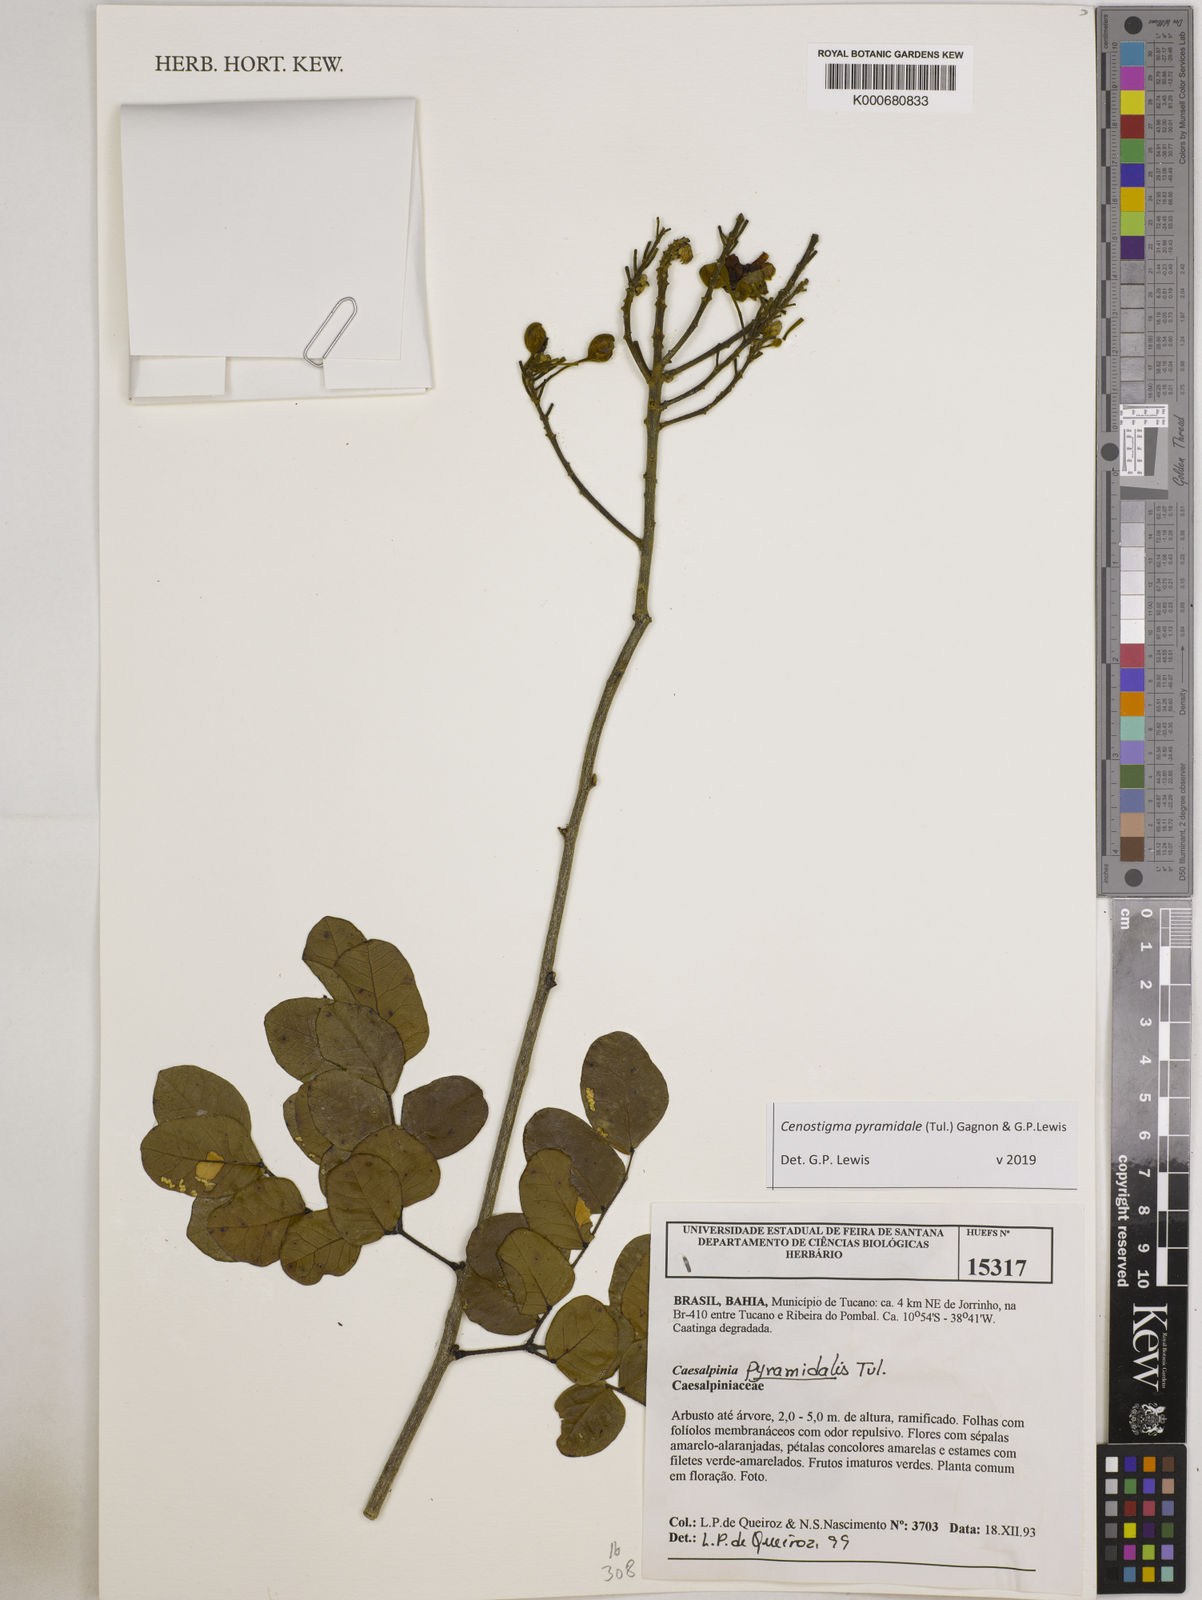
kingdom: Plantae
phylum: Tracheophyta
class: Magnoliopsida
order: Fabales
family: Fabaceae
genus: Caesalpinia
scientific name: Caesalpinia
